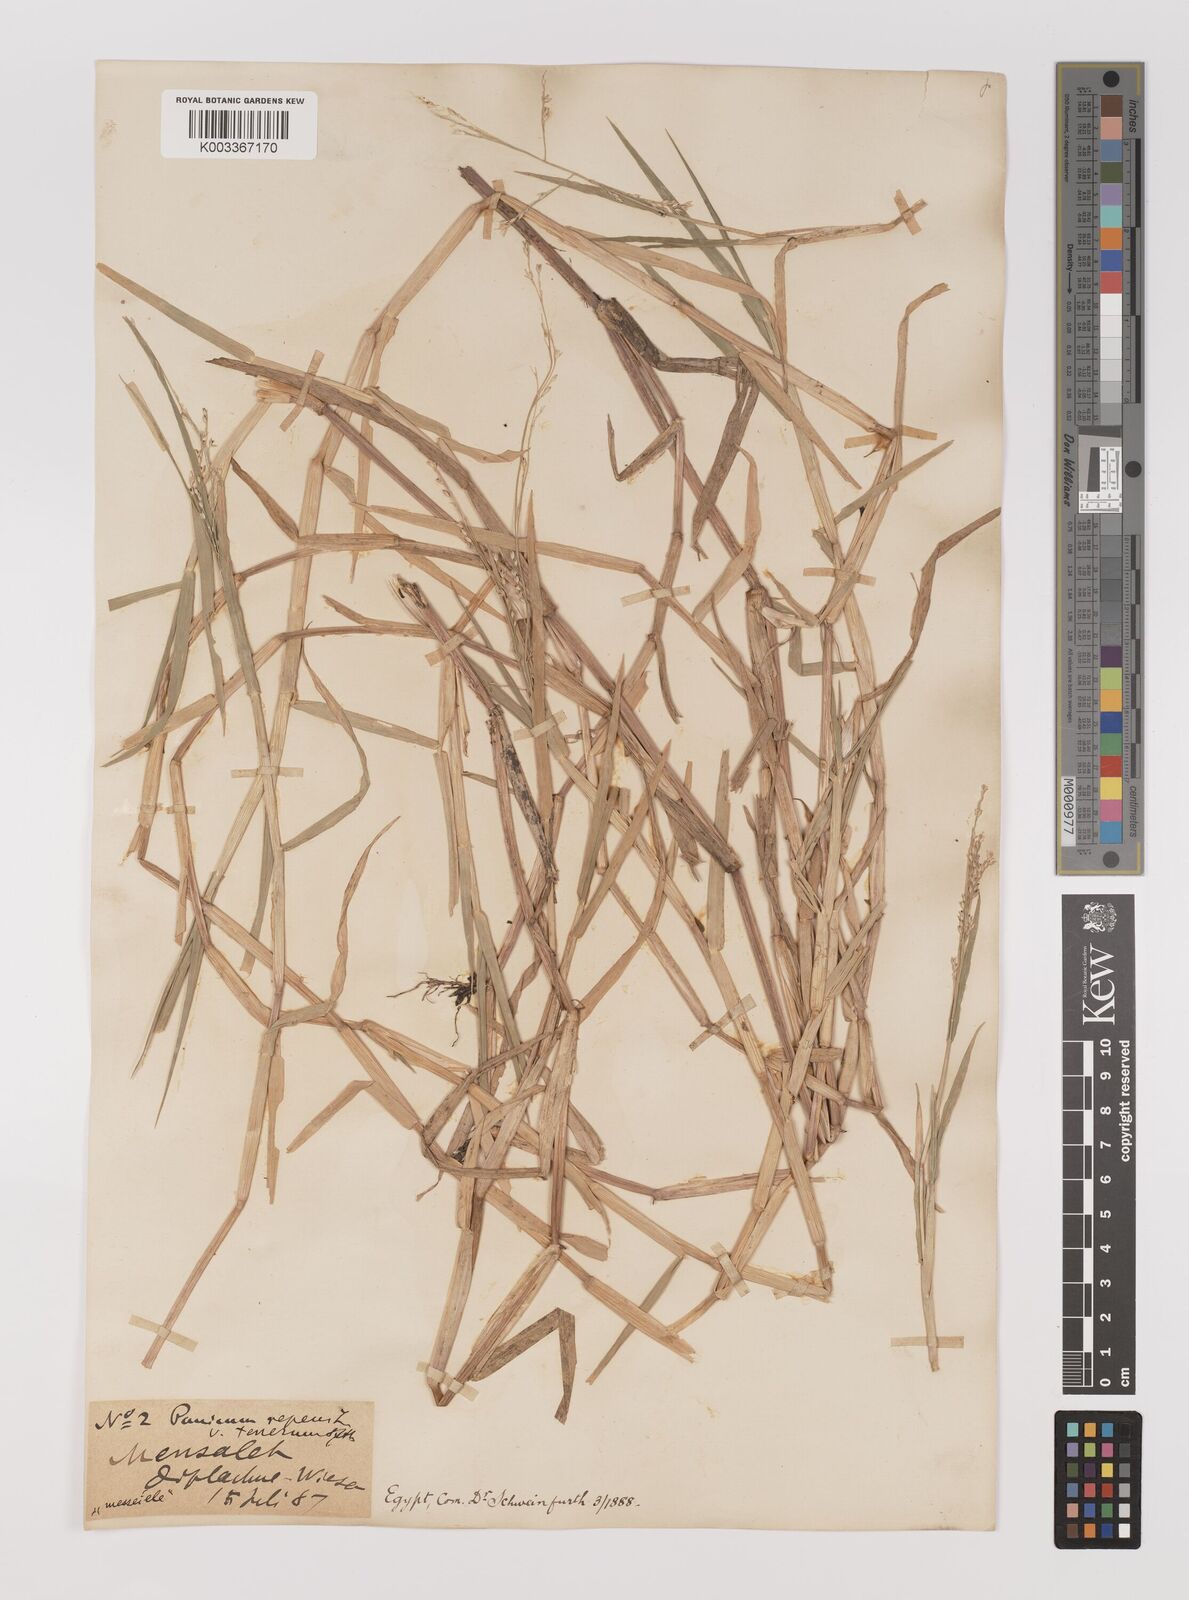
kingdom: Plantae
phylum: Tracheophyta
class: Liliopsida
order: Poales
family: Poaceae
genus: Panicum
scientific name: Panicum repens
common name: Torpedo grass
